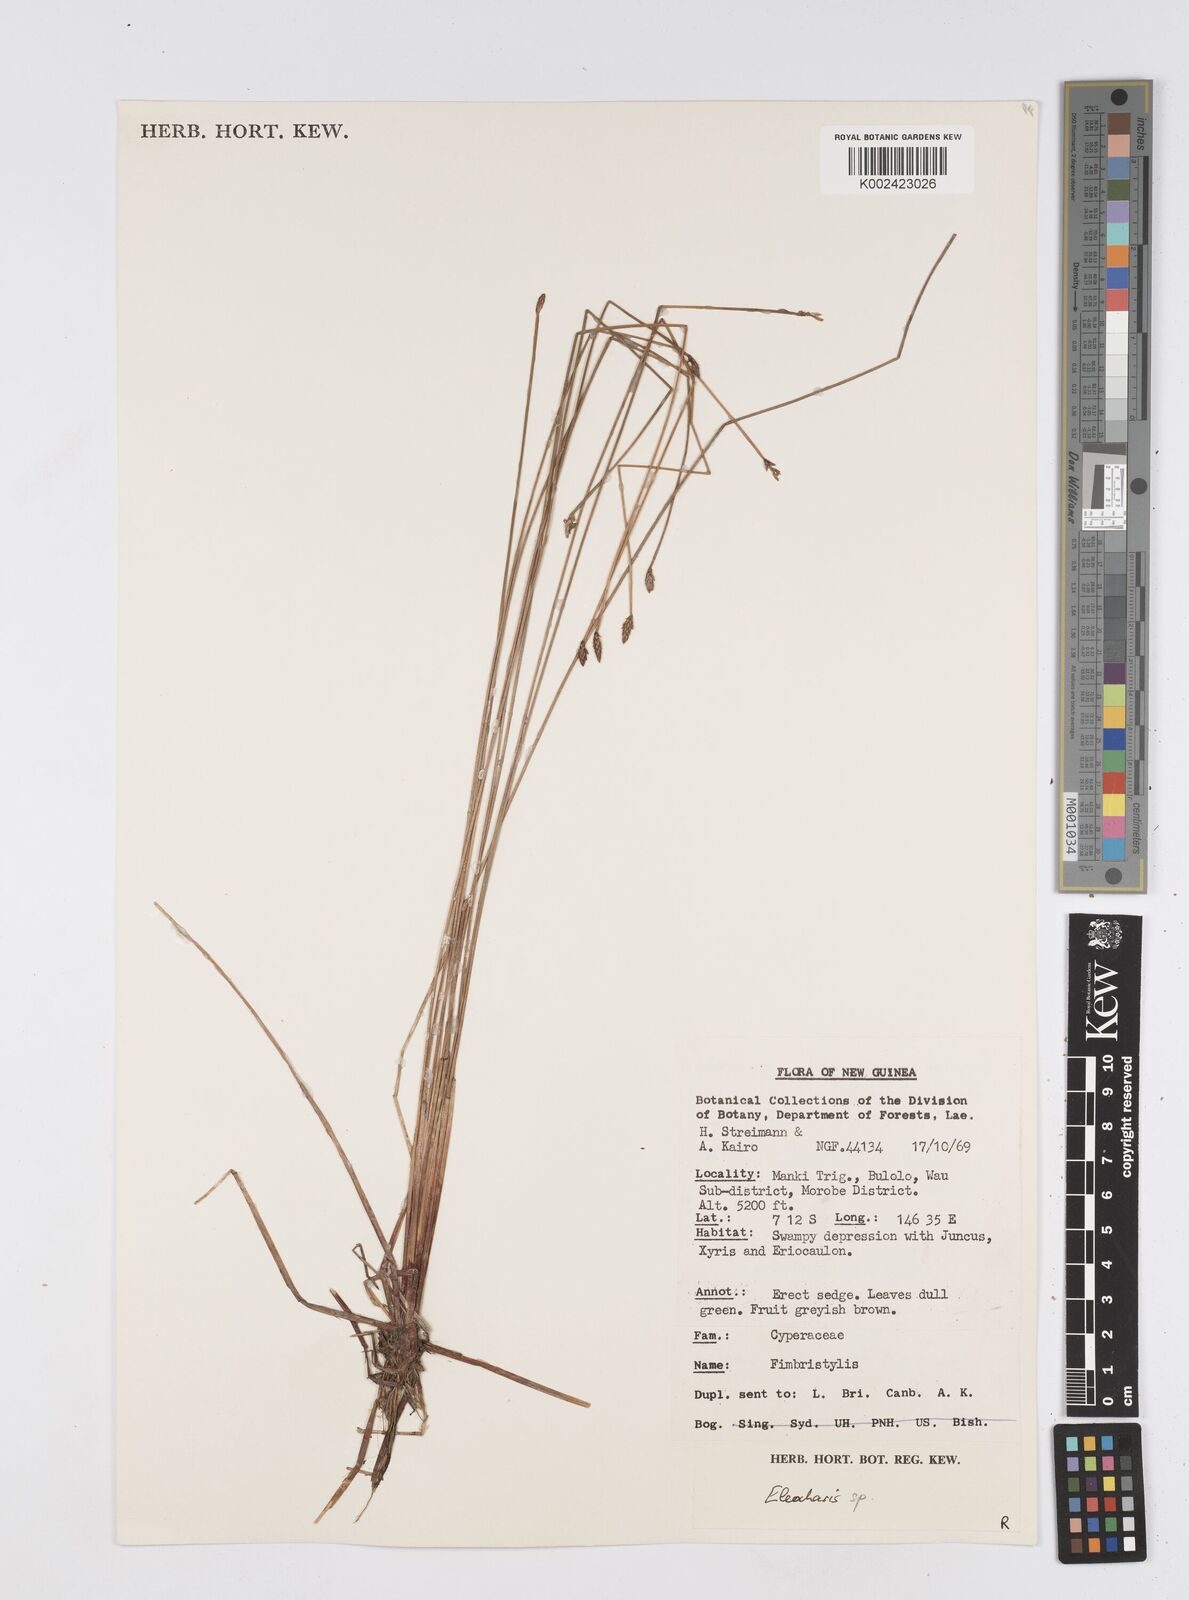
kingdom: Plantae
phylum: Tracheophyta
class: Liliopsida
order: Poales
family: Cyperaceae
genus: Eleocharis
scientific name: Eleocharis
